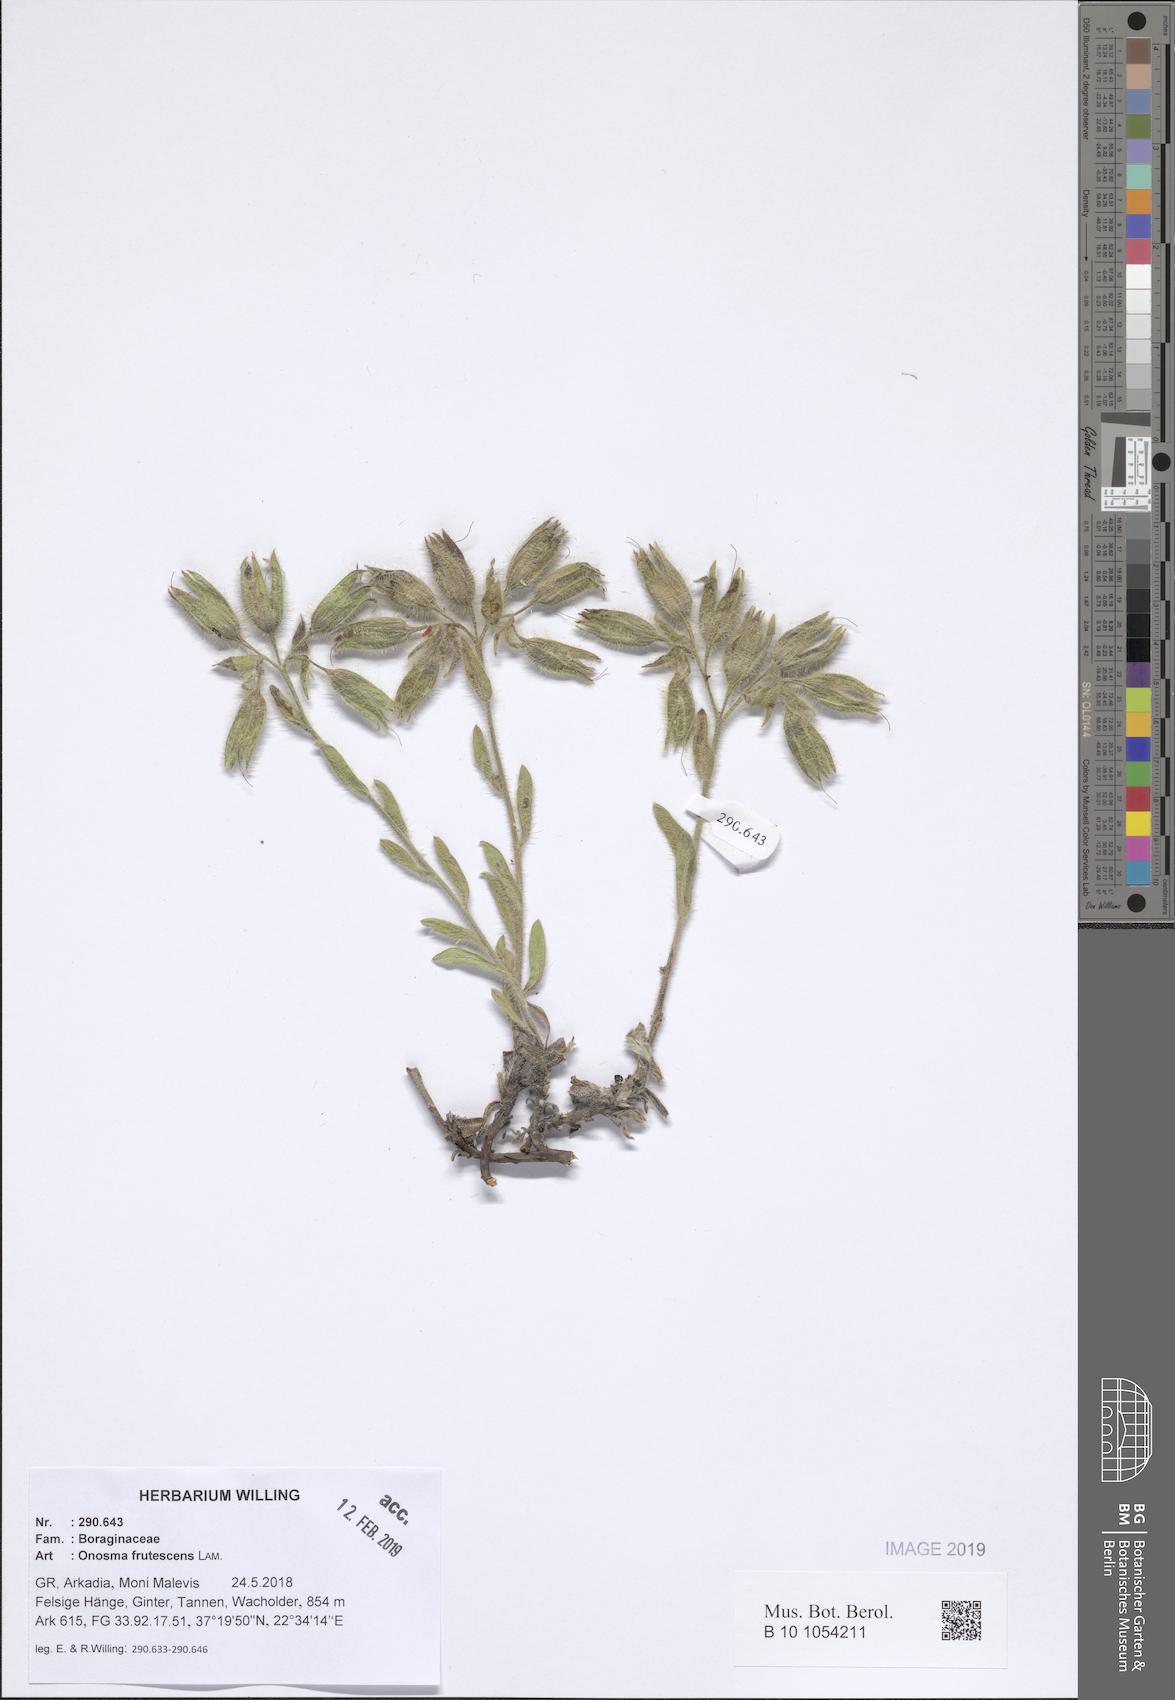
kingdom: Plantae
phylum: Tracheophyta
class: Magnoliopsida
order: Boraginales
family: Boraginaceae
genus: Onosma
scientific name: Onosma frutescens
